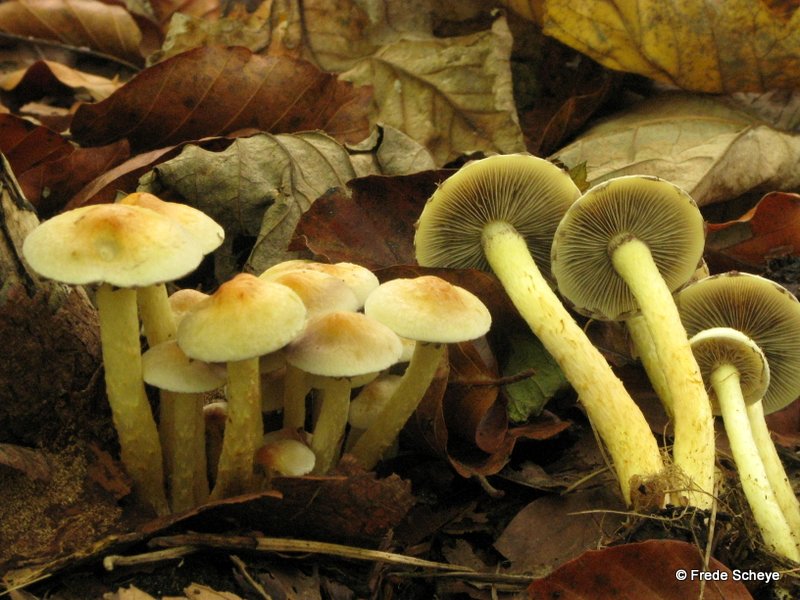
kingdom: Fungi
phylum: Basidiomycota
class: Agaricomycetes
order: Agaricales
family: Strophariaceae
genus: Hypholoma
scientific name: Hypholoma fasciculare
